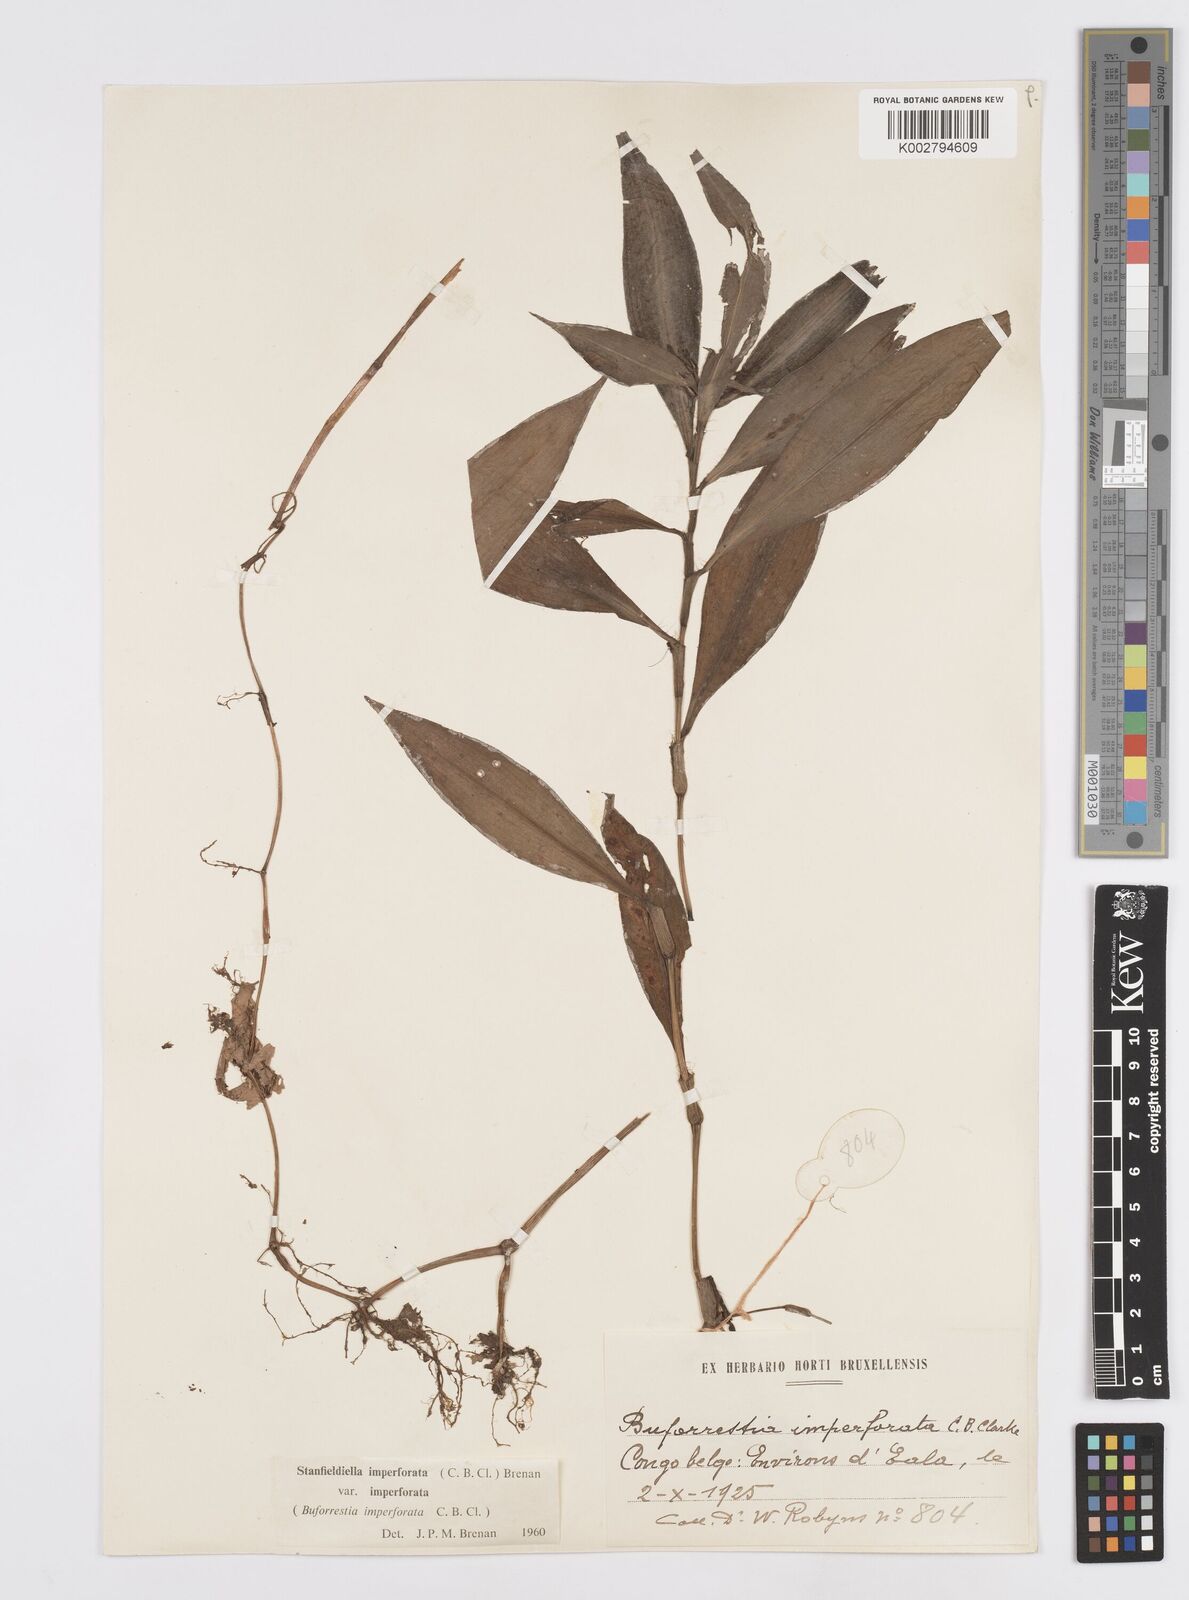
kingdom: Plantae
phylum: Tracheophyta
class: Liliopsida
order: Commelinales
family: Commelinaceae
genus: Stanfieldiella
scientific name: Stanfieldiella imperforata
